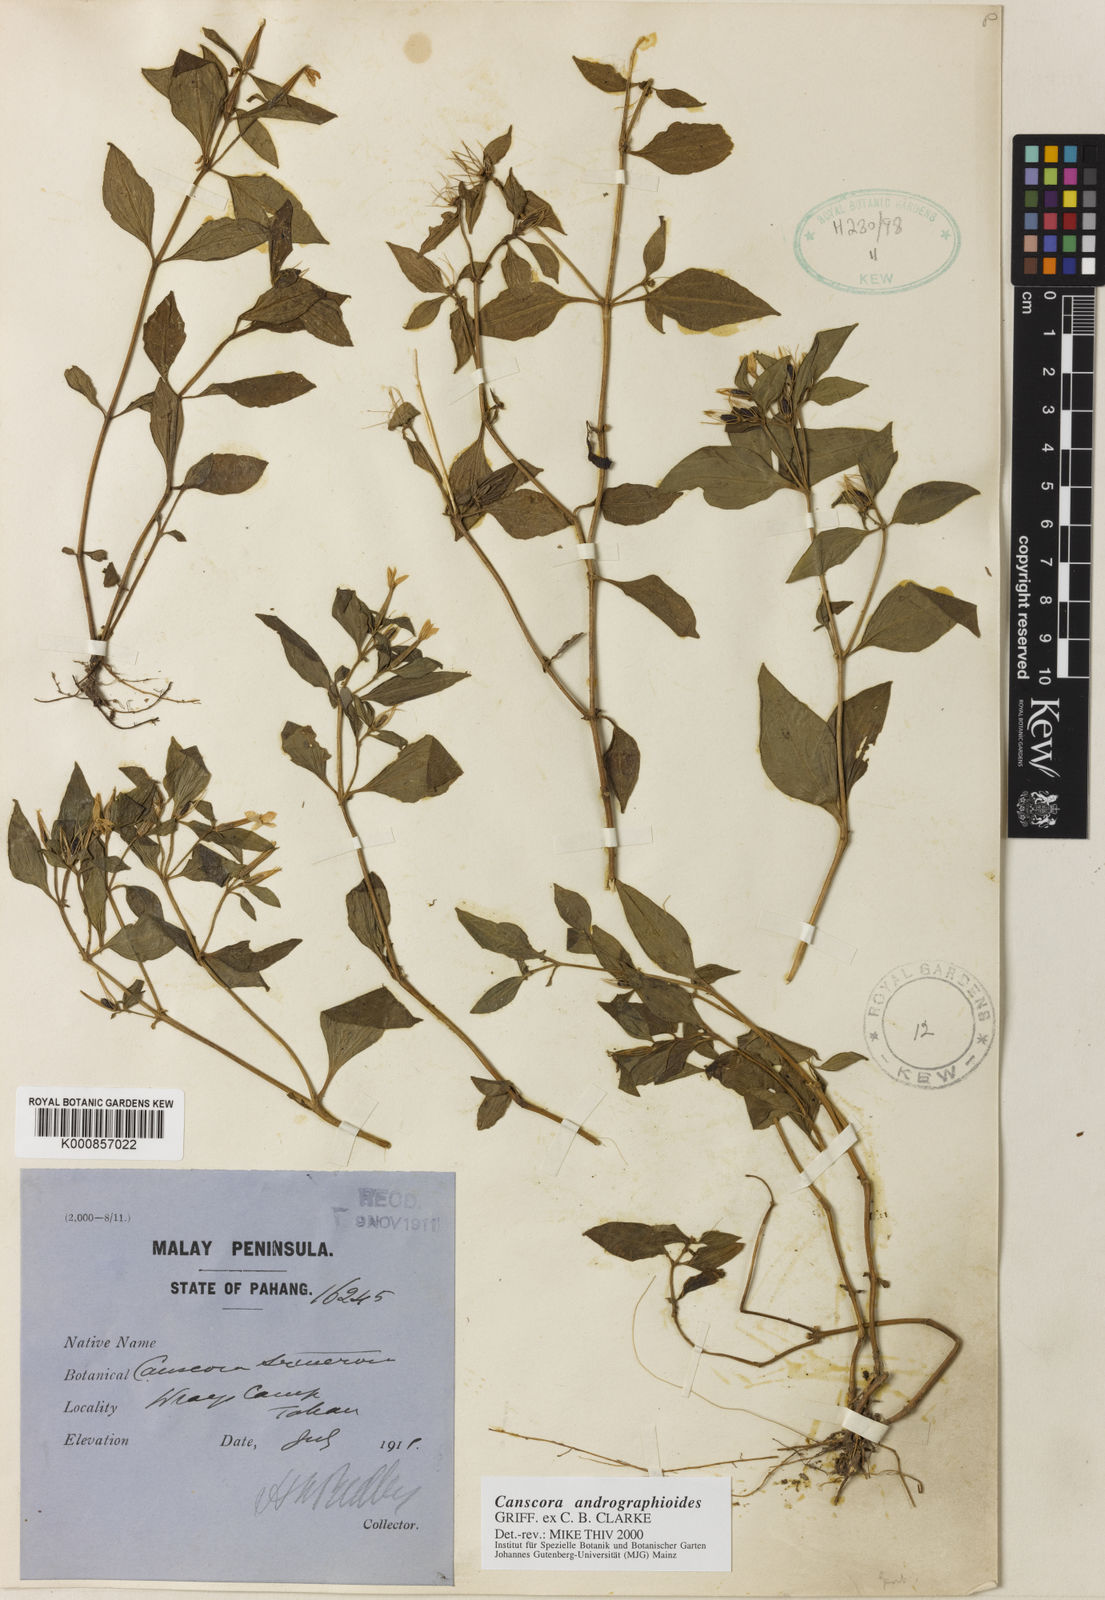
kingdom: Plantae
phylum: Tracheophyta
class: Magnoliopsida
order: Gentianales
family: Gentianaceae
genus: Canscora
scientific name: Canscora andrographioides
